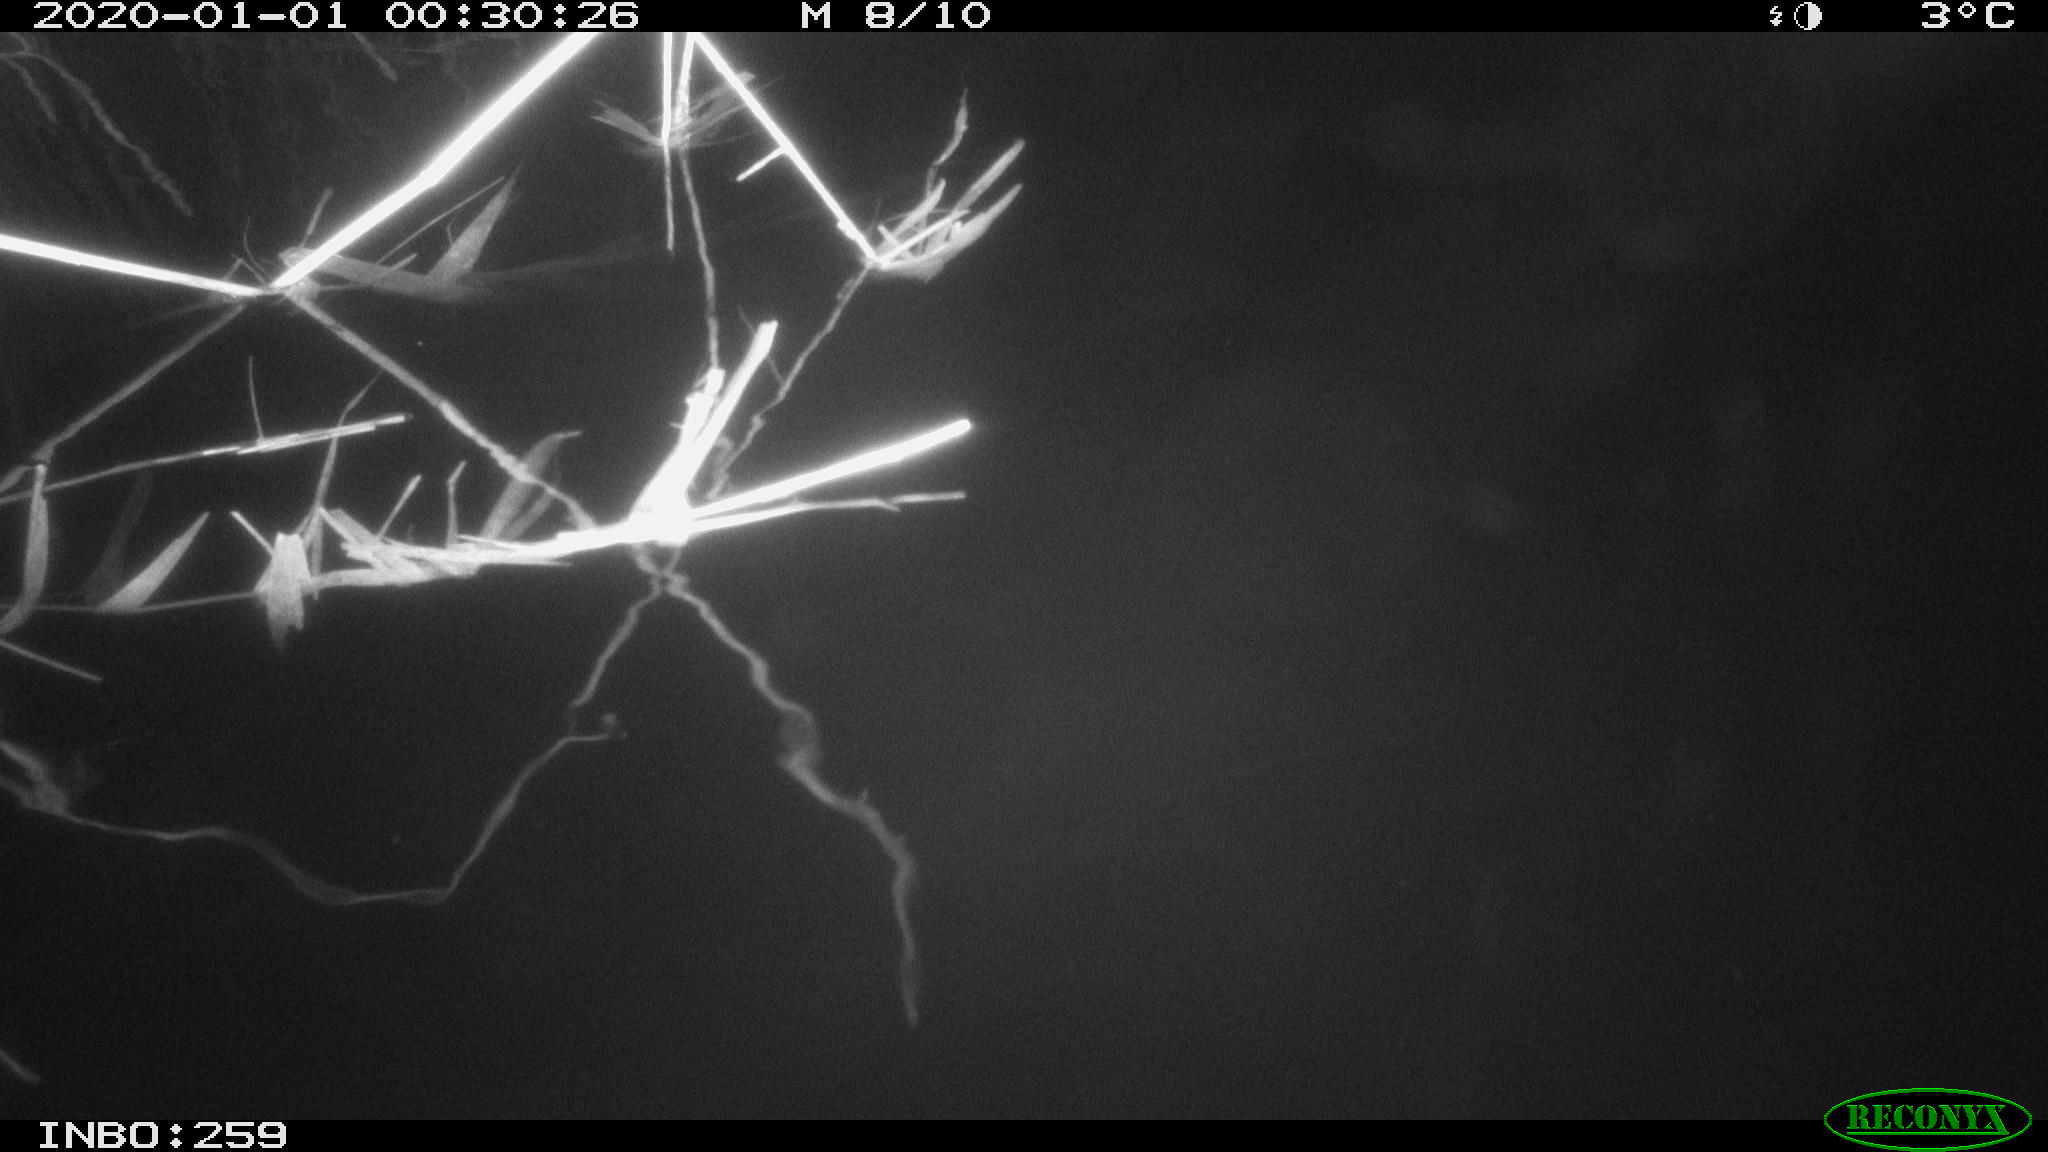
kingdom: Animalia
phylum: Chordata
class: Aves
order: Anseriformes
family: Anatidae
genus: Anas
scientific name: Anas platyrhynchos
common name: Mallard
